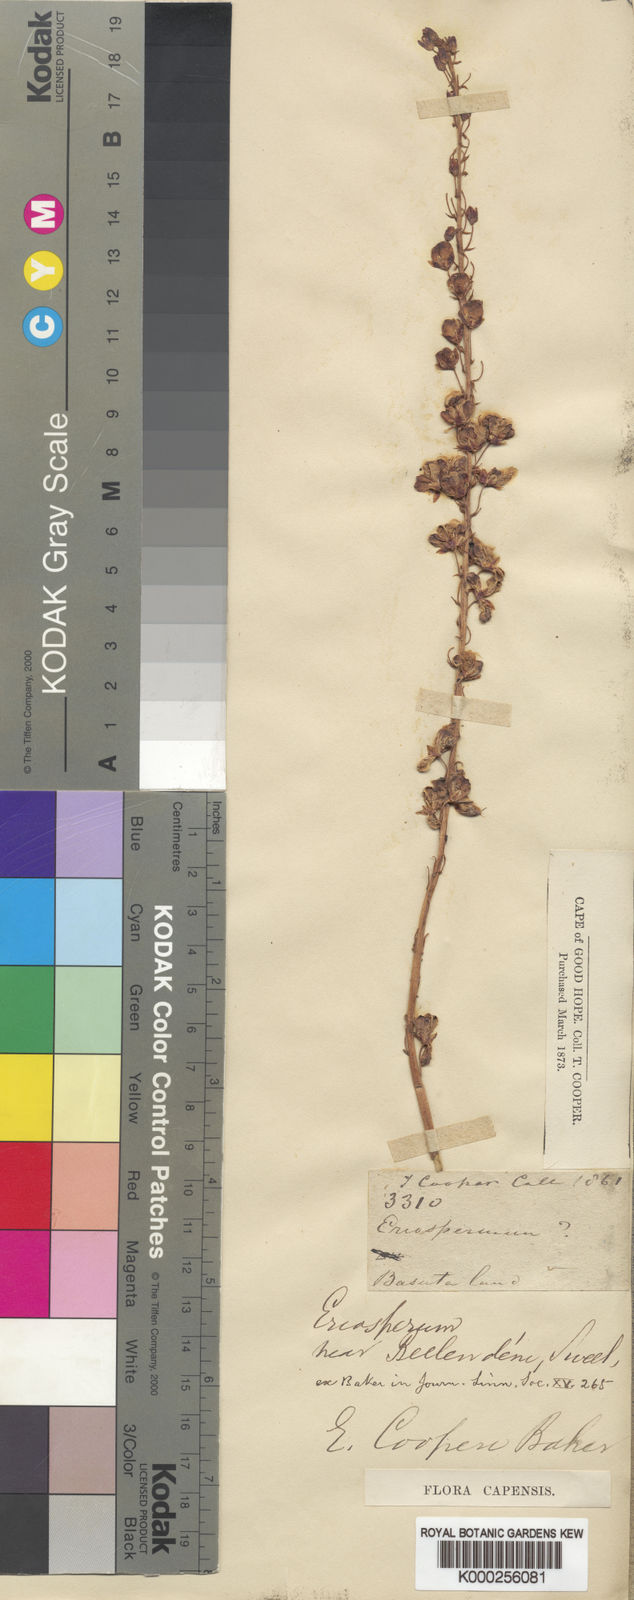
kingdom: Plantae
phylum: Tracheophyta
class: Liliopsida
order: Asparagales
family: Asparagaceae
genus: Eriospermum
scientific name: Eriospermum cooperi
